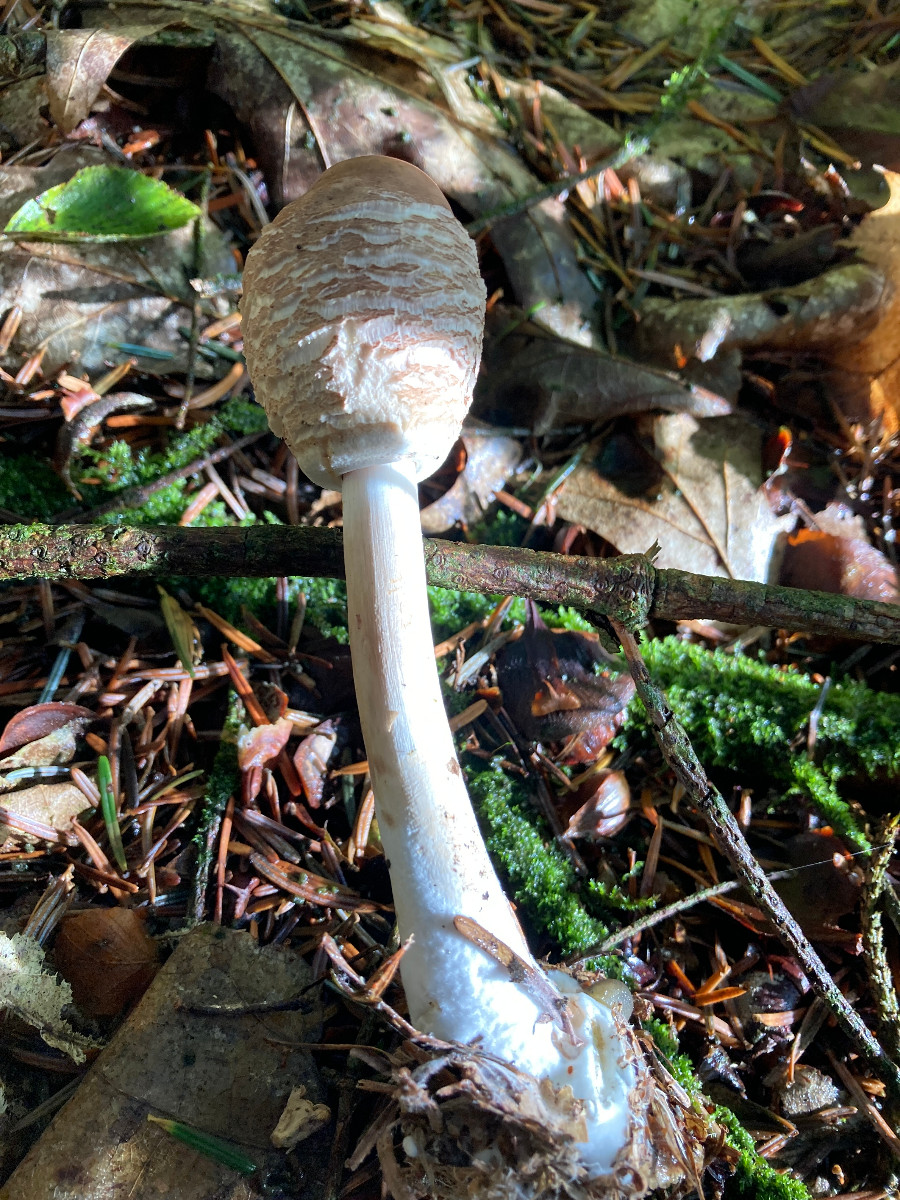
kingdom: Fungi
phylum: Basidiomycota
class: Agaricomycetes
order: Agaricales
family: Agaricaceae
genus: Chlorophyllum
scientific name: Chlorophyllum olivieri
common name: almindelig rabarberhat
